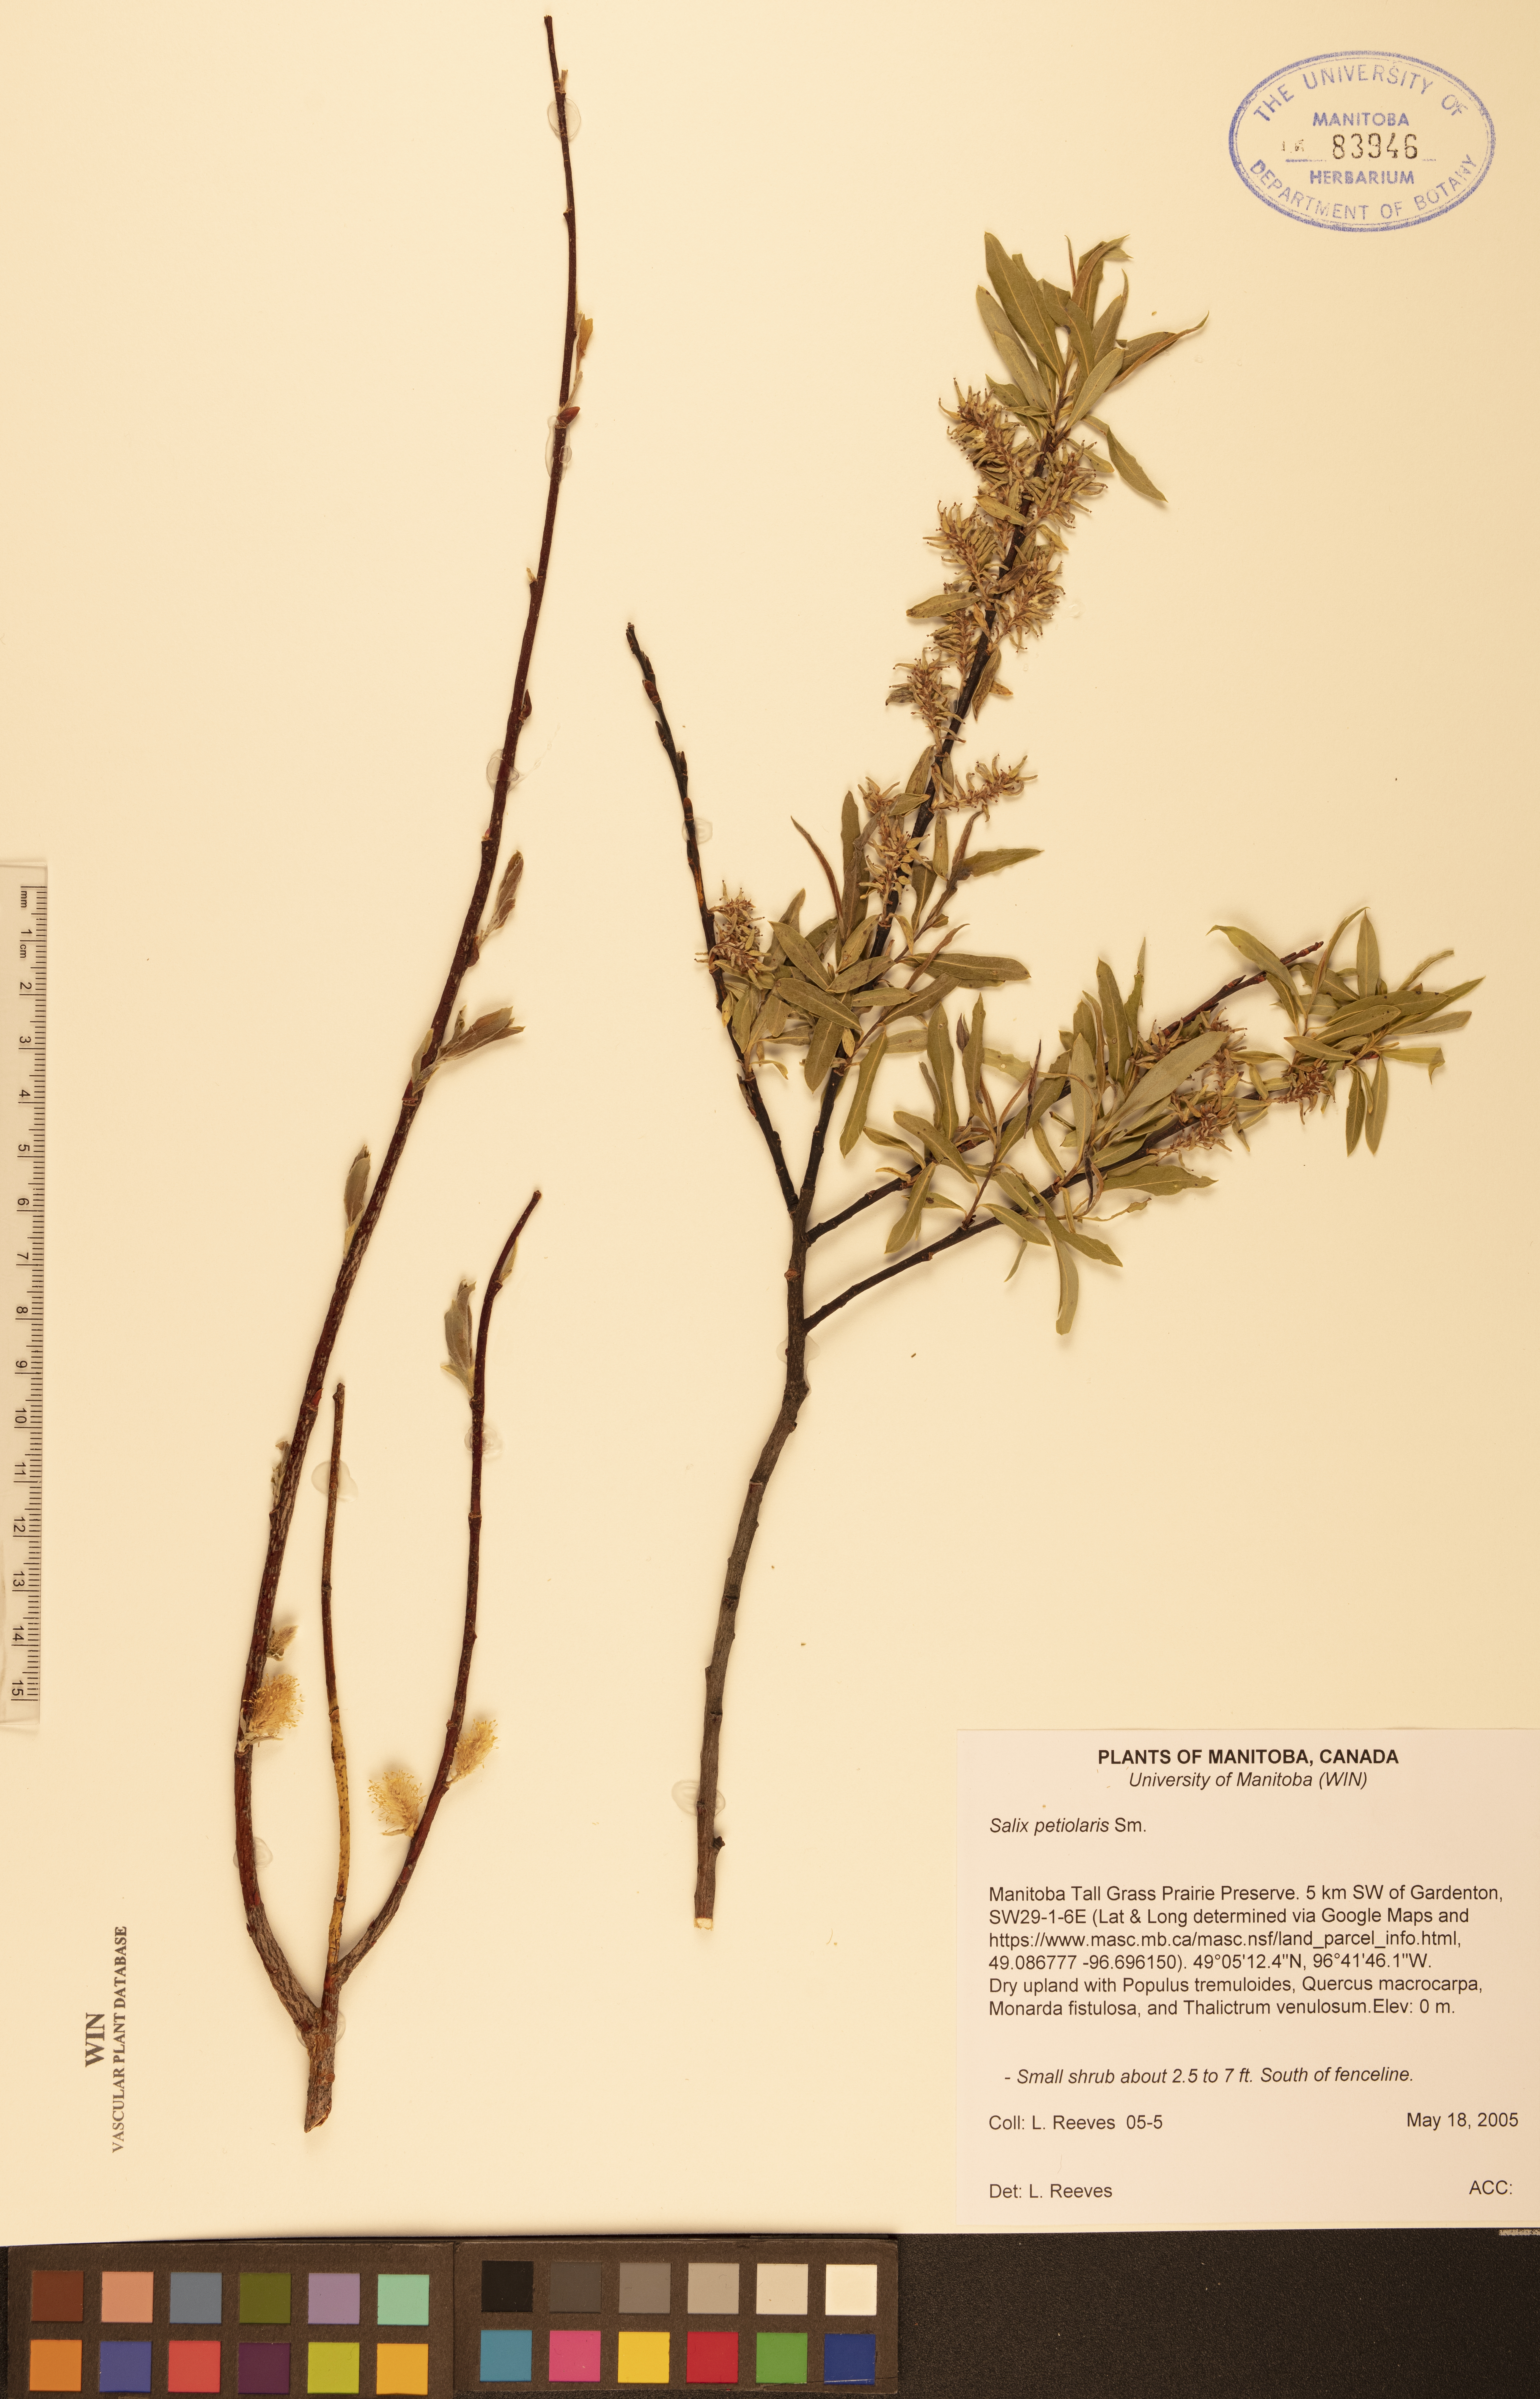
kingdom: Plantae
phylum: Tracheophyta
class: Magnoliopsida
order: Malpighiales
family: Salicaceae
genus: Salix
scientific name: Salix petiolaris
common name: Slender willow
